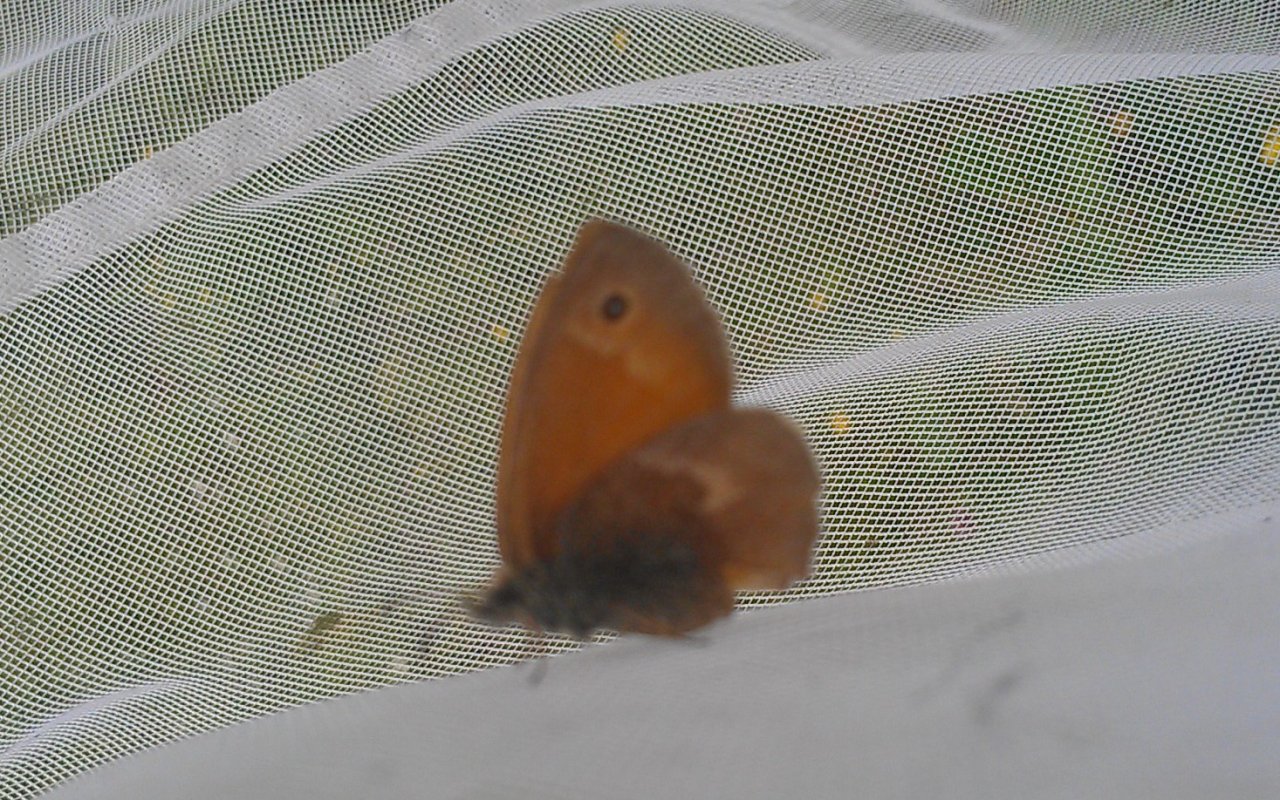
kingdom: Animalia
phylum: Arthropoda
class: Insecta
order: Lepidoptera
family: Nymphalidae
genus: Coenonympha
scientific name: Coenonympha tullia
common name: Large Heath
